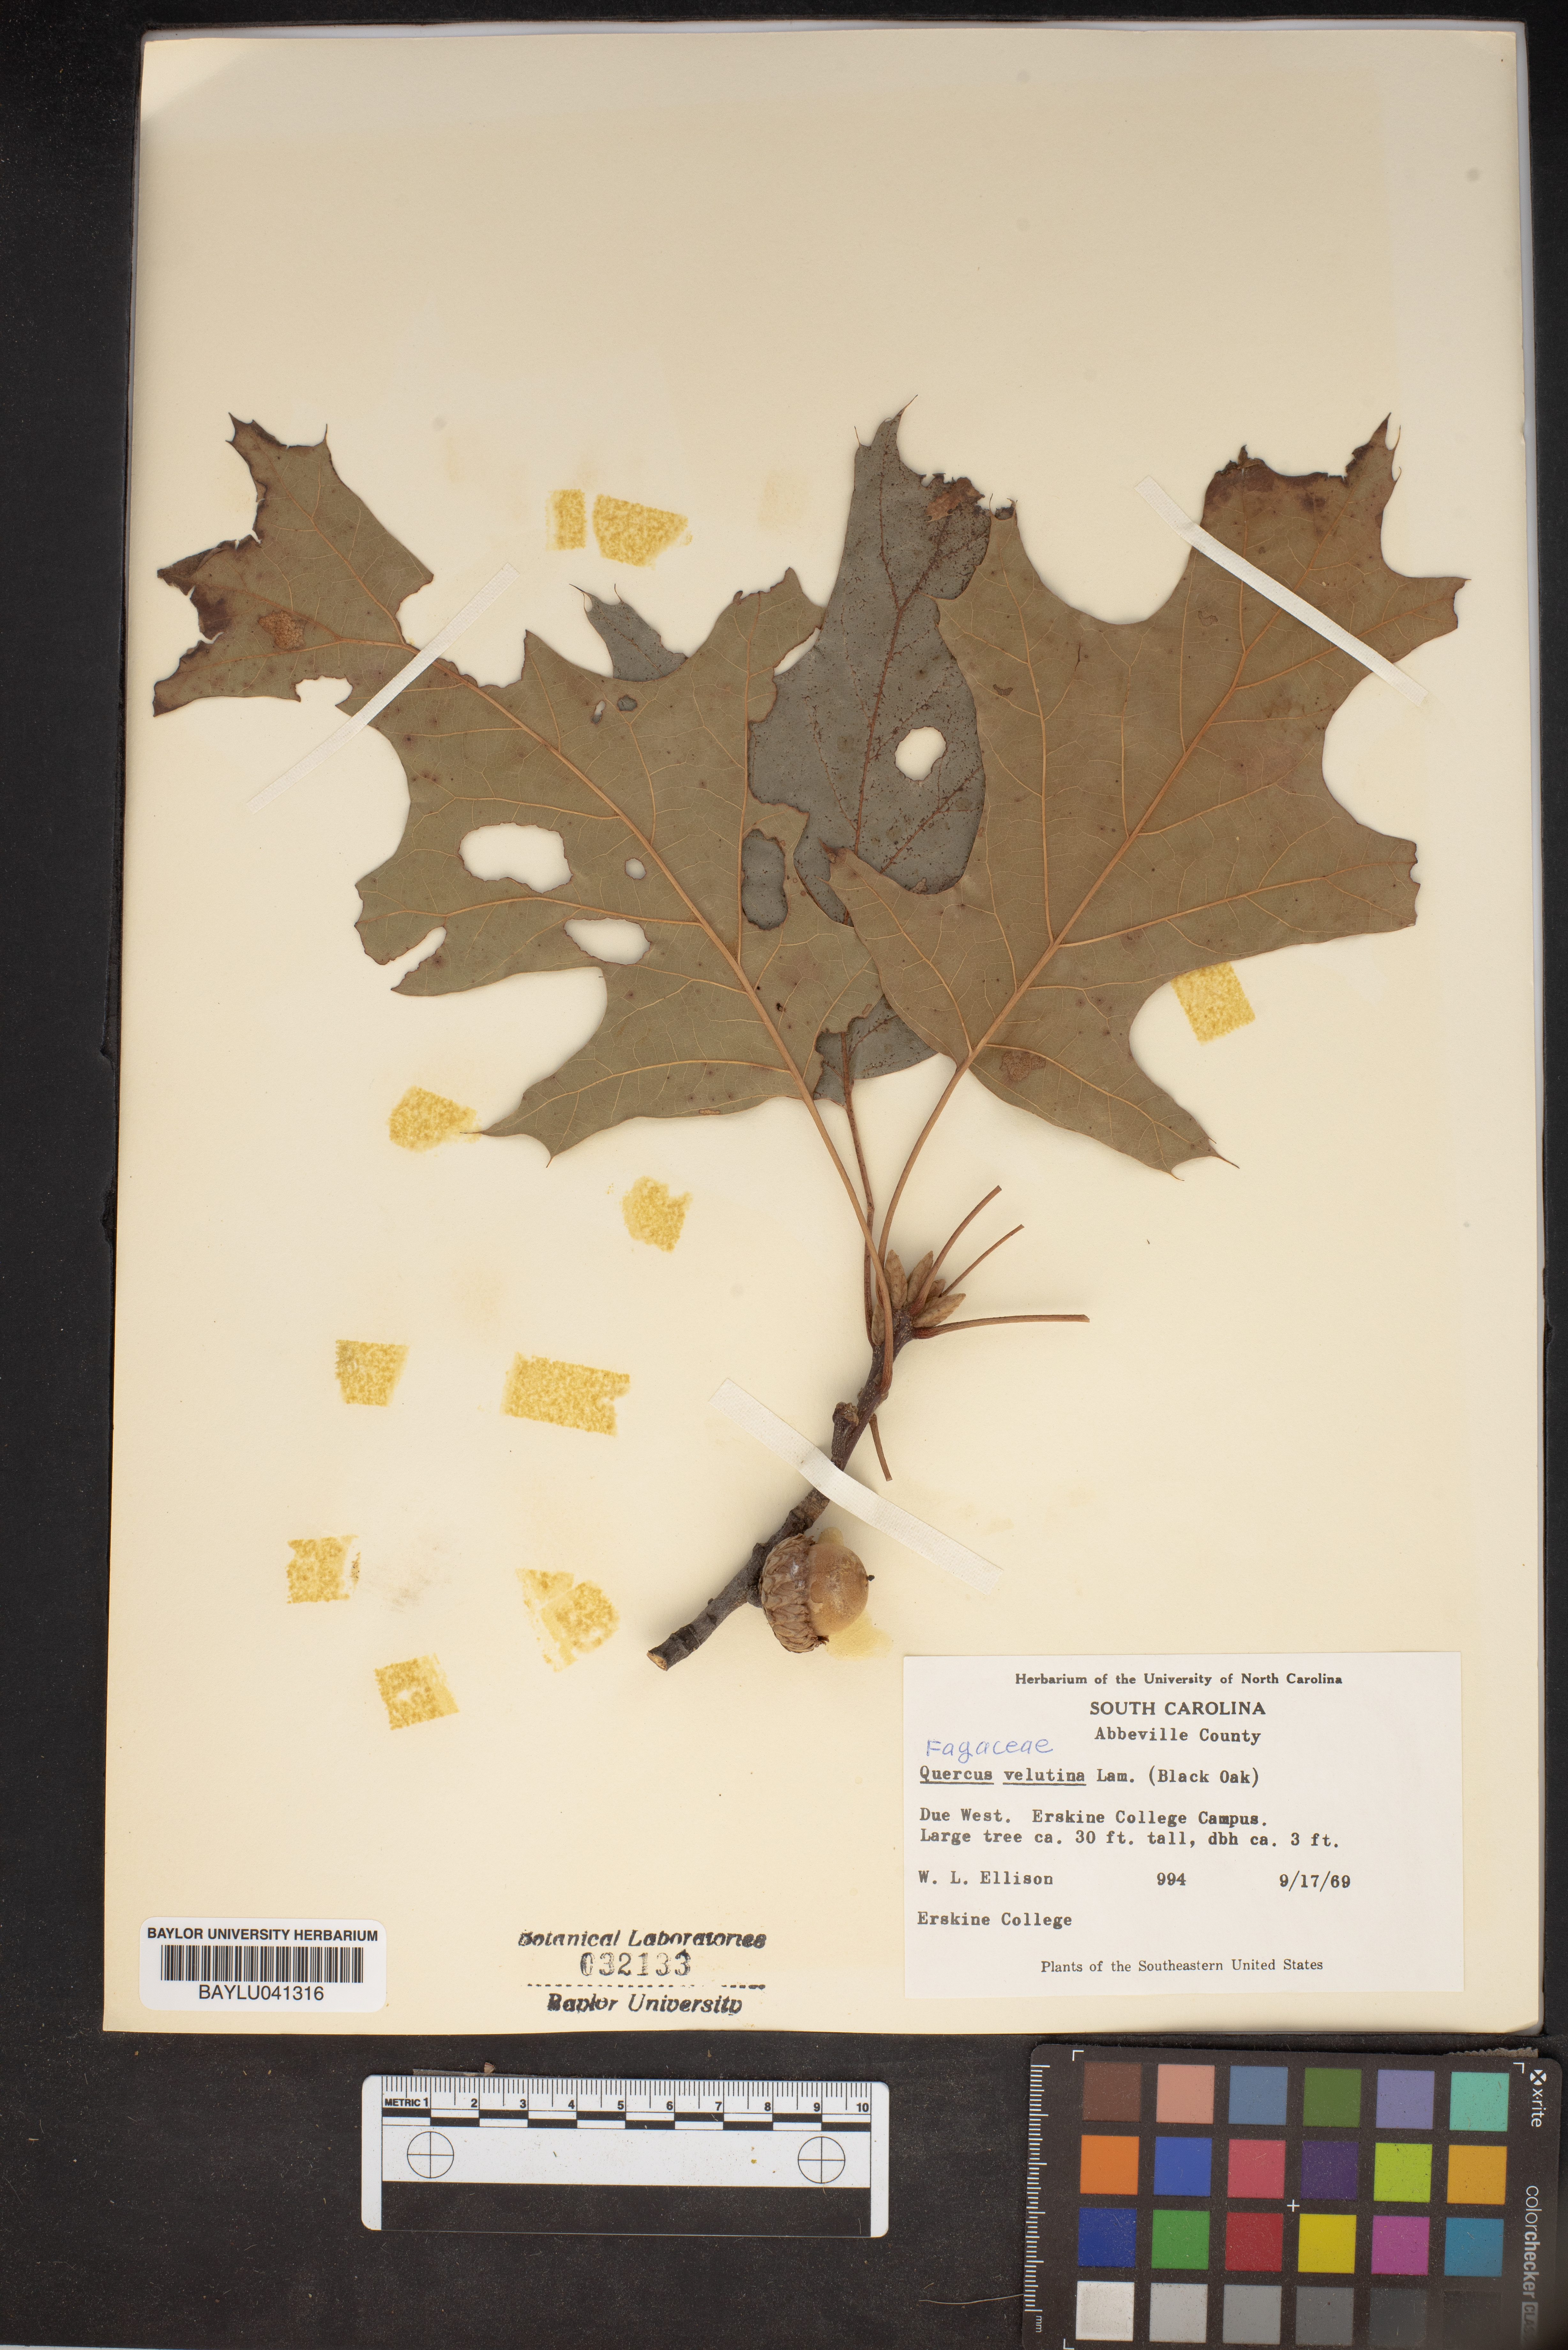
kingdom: Plantae
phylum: Tracheophyta
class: Magnoliopsida
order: Fagales
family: Fagaceae
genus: Quercus
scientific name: Quercus velutina
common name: Black oak
